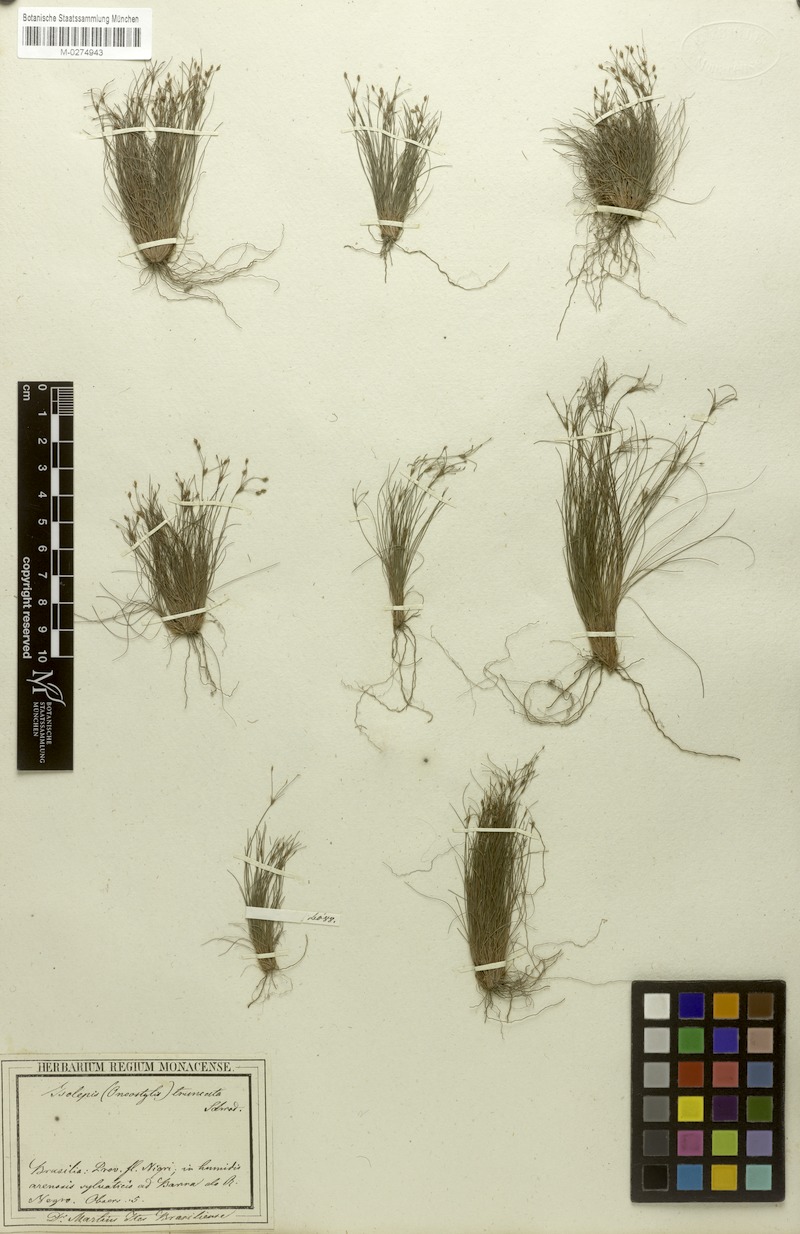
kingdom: Plantae
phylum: Tracheophyta
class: Liliopsida
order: Poales
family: Cyperaceae
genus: Bulbostylis
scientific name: Bulbostylis truncata
